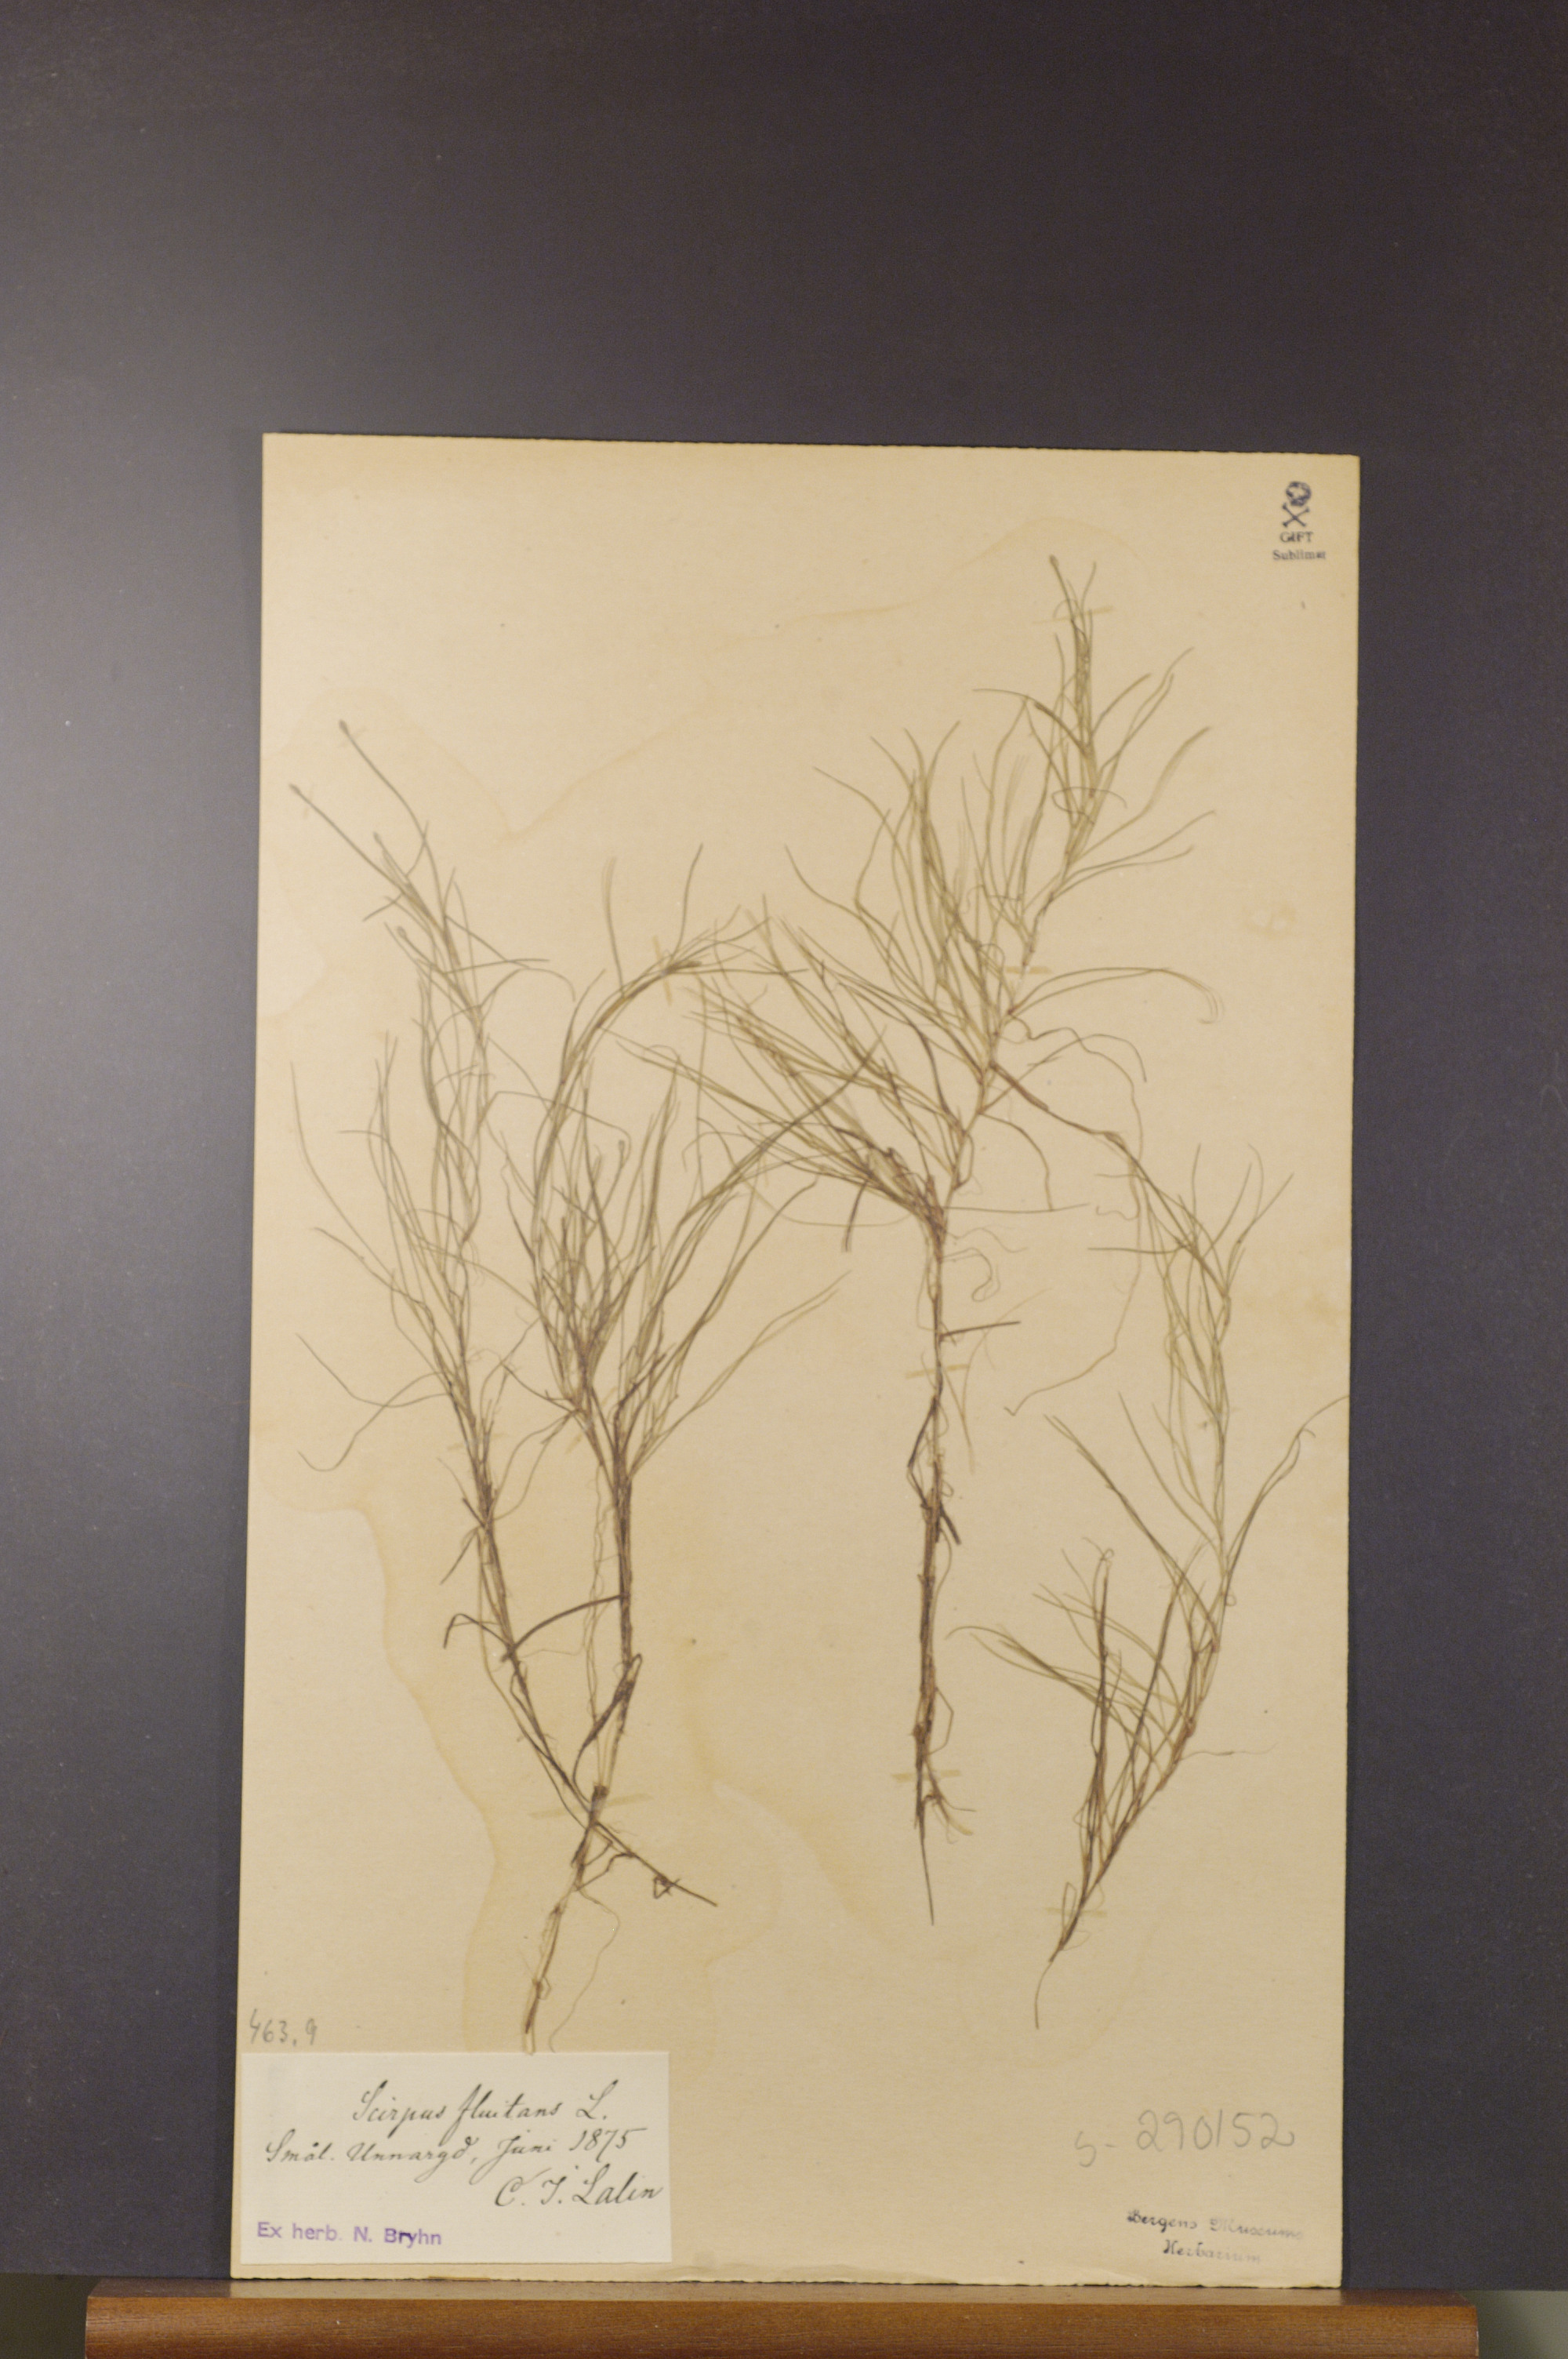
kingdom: Plantae
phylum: Tracheophyta
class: Liliopsida
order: Poales
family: Cyperaceae
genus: Isolepis
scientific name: Isolepis fluitans
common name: Floating club-rush
